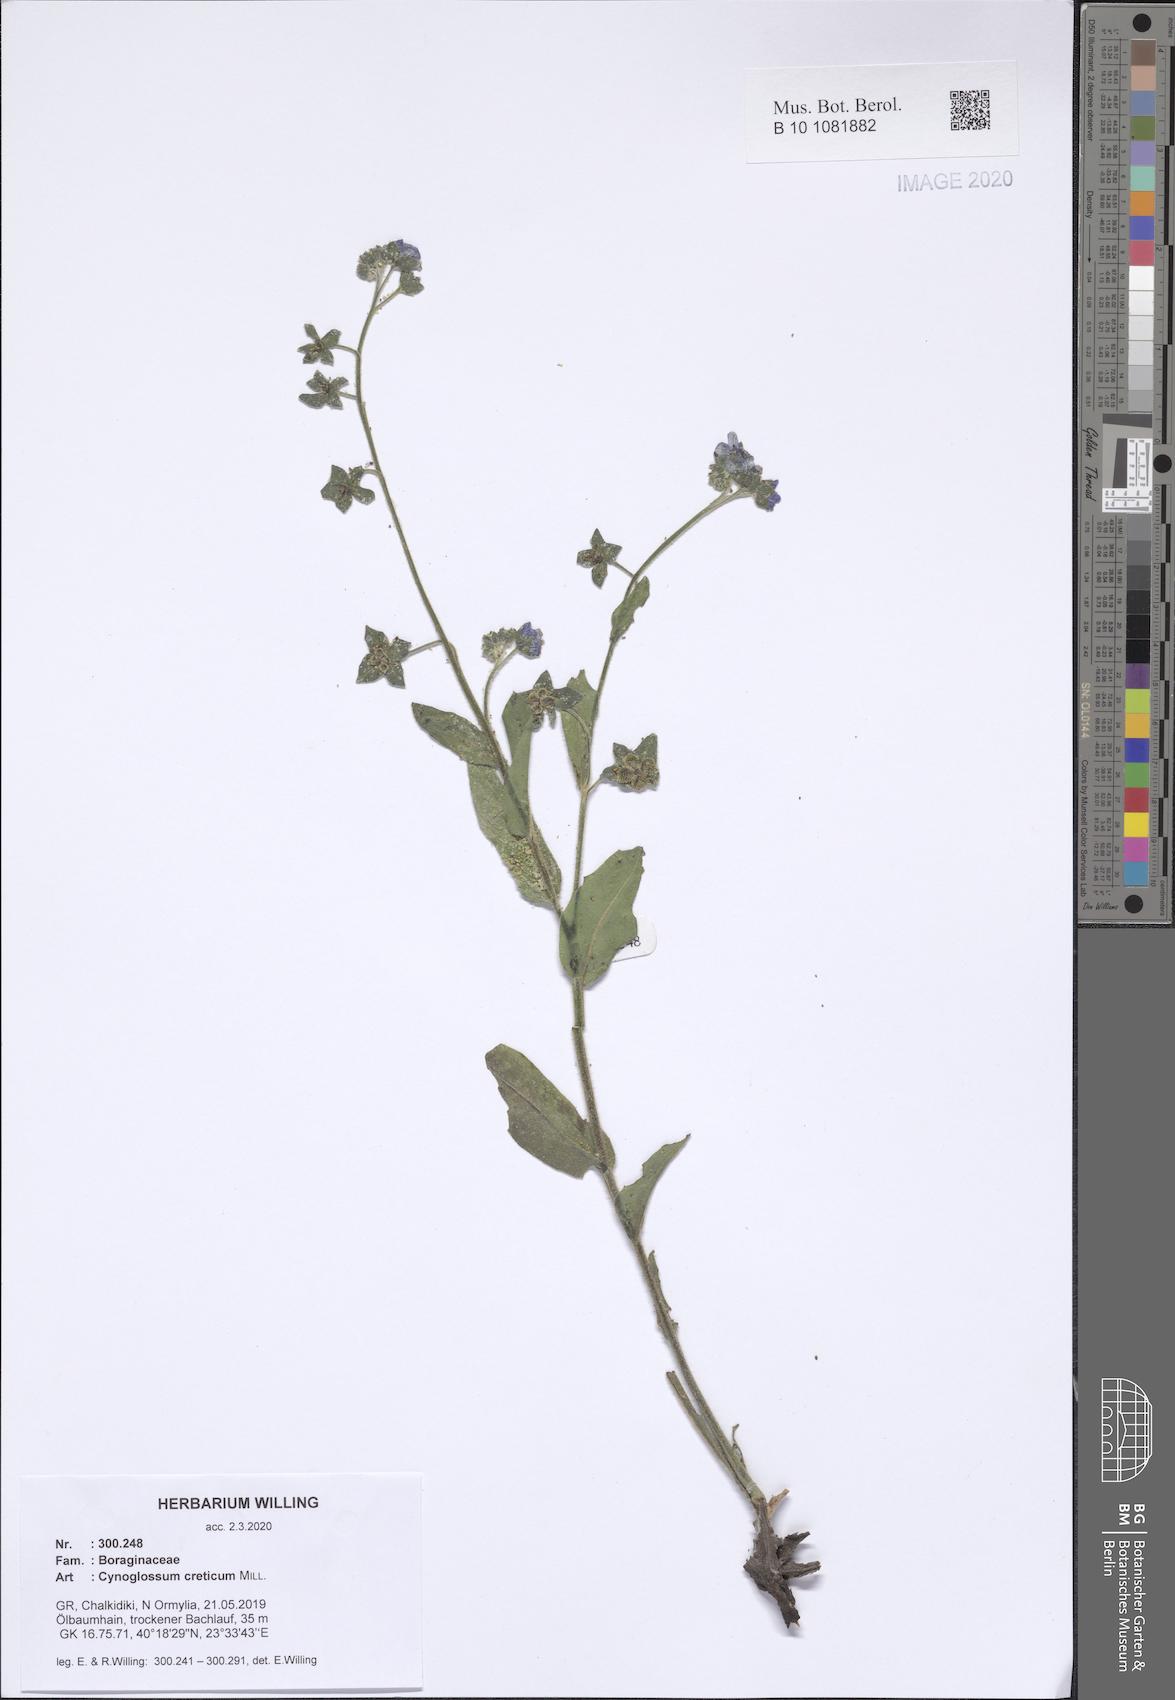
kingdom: Plantae
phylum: Tracheophyta
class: Magnoliopsida
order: Boraginales
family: Boraginaceae
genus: Cynoglossum
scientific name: Cynoglossum creticum
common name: Blue hound's tongue
